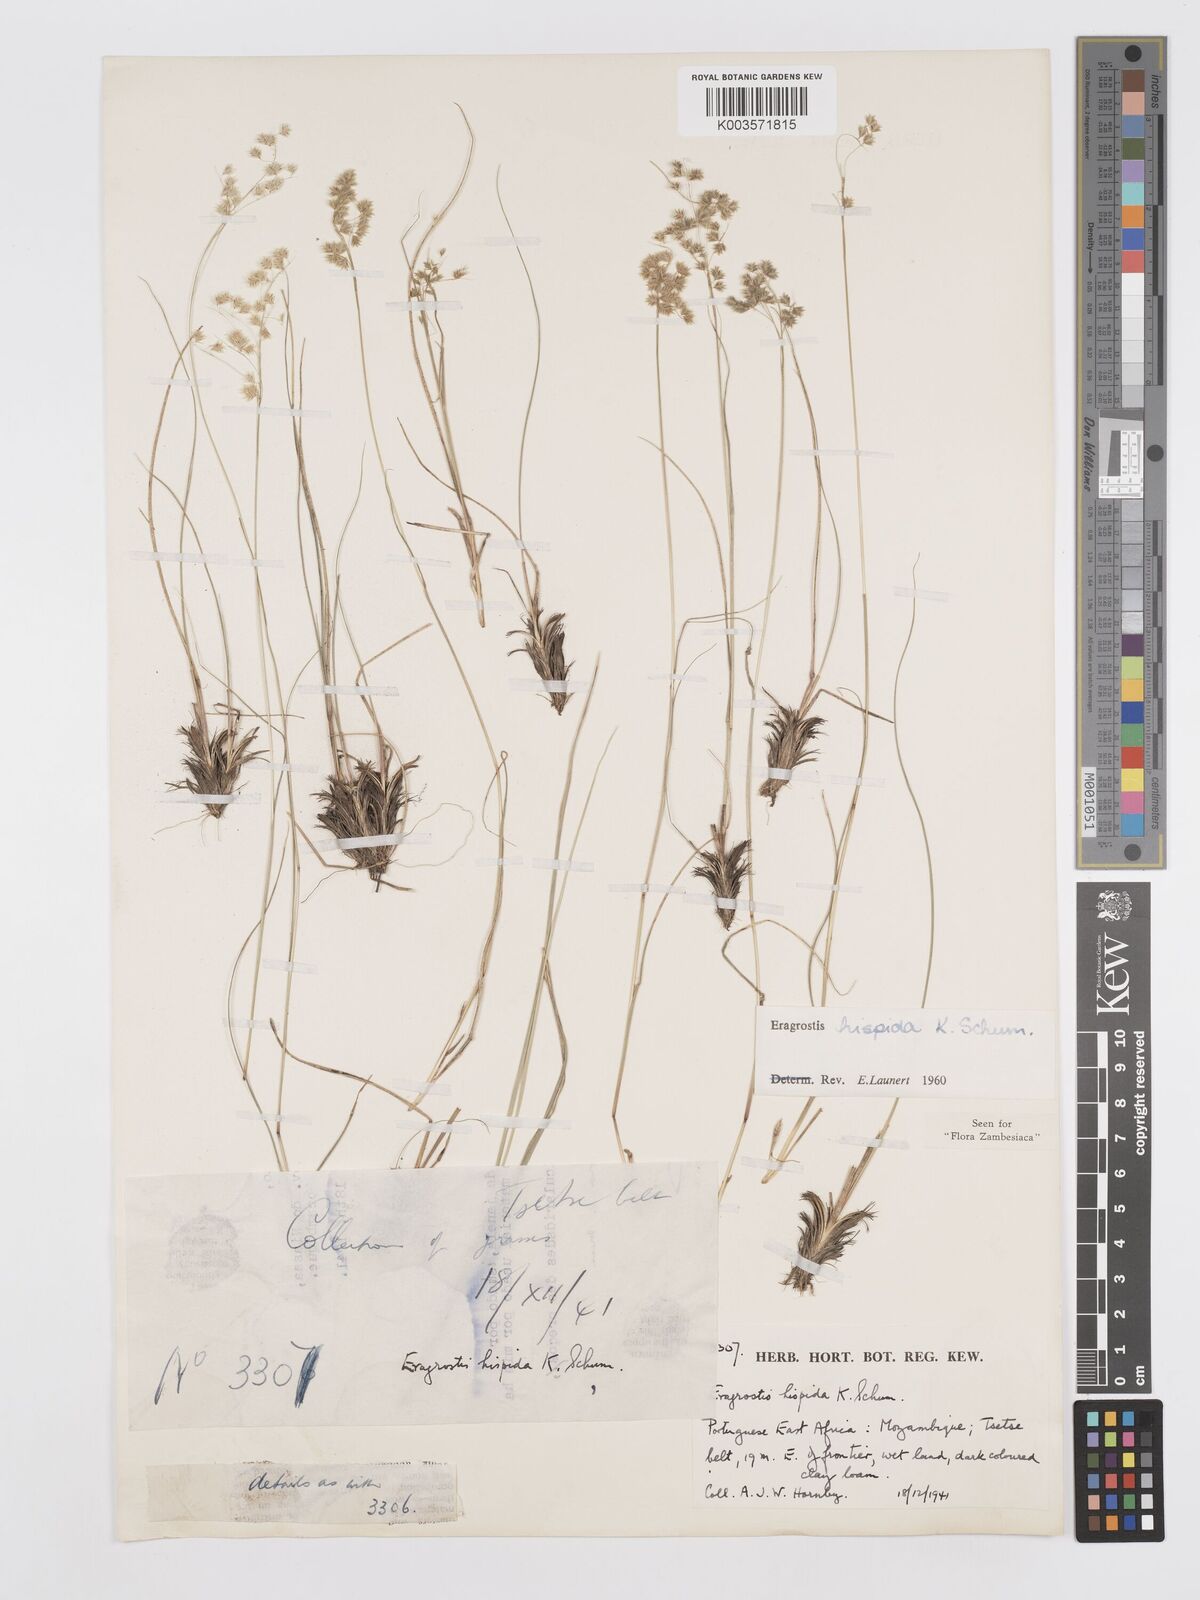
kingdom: Plantae
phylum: Tracheophyta
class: Liliopsida
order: Poales
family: Poaceae
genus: Eragrostis
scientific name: Eragrostis hispida
